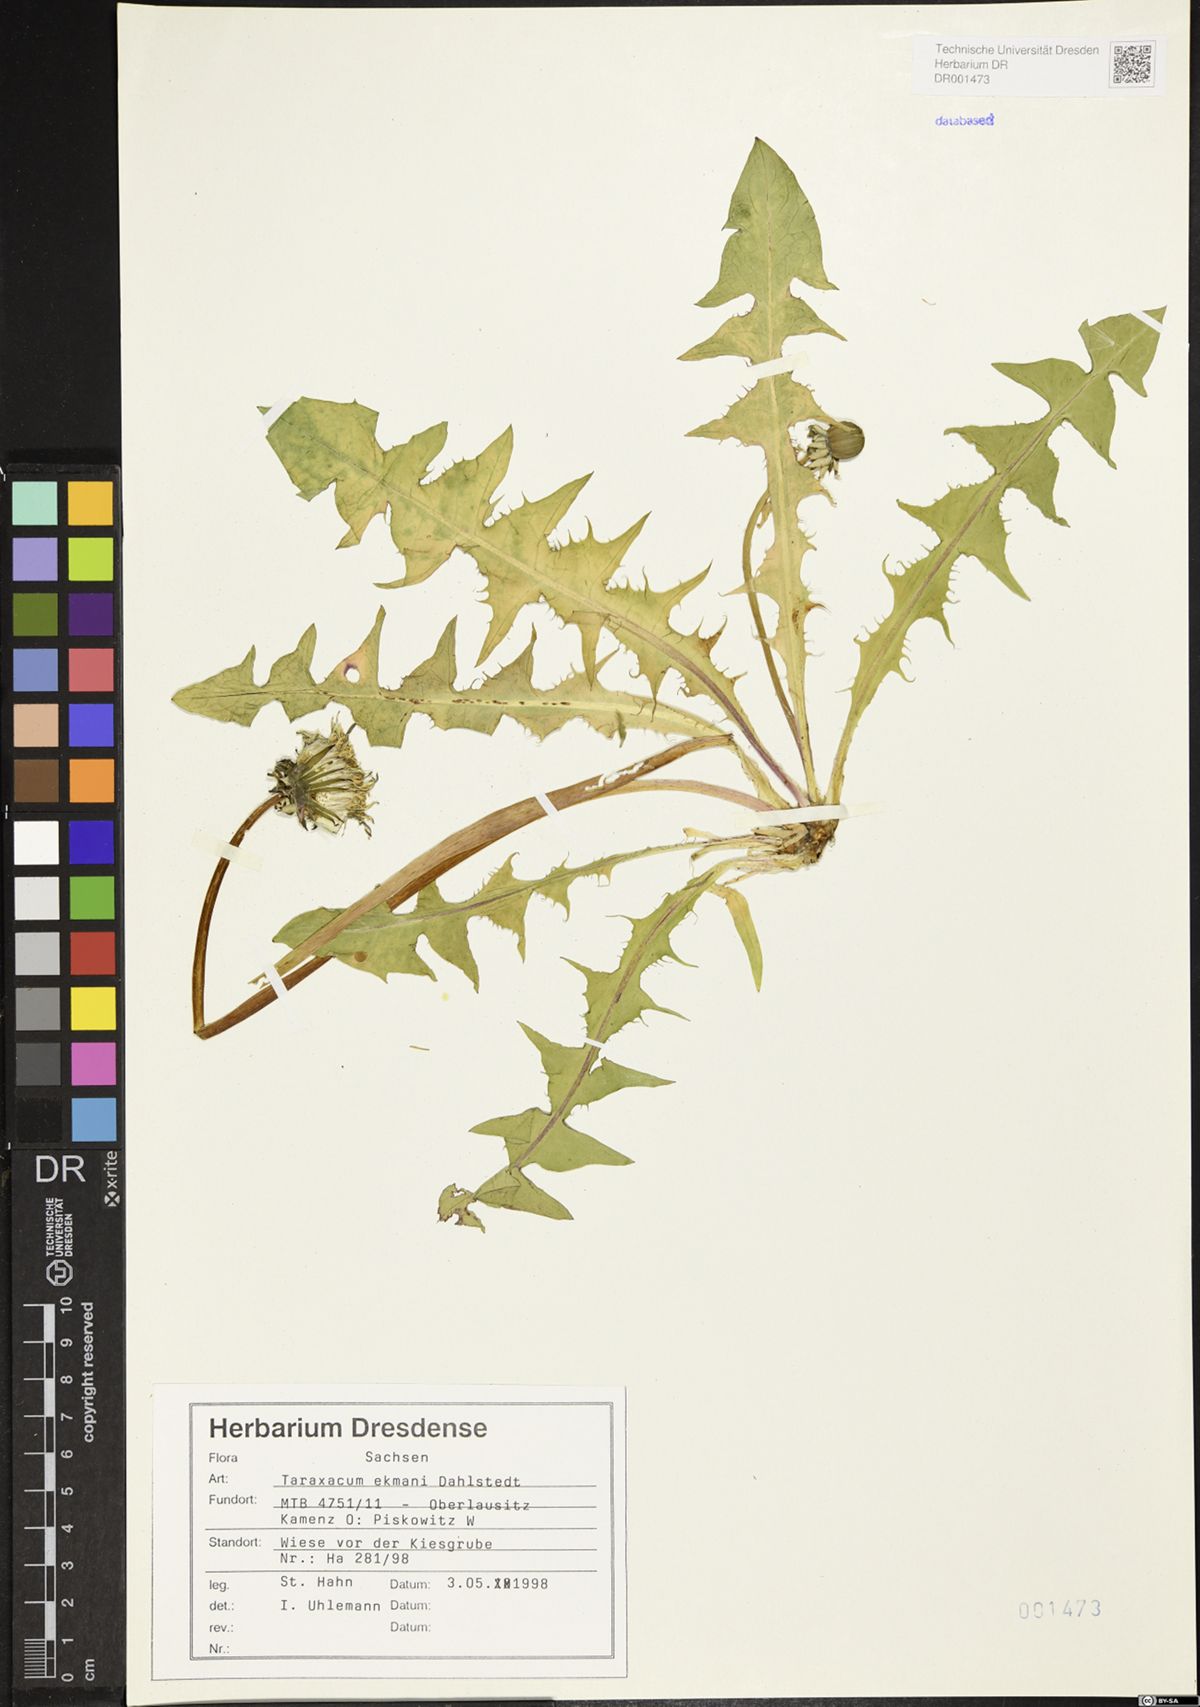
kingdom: Plantae
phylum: Tracheophyta
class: Magnoliopsida
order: Asterales
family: Asteraceae
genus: Taraxacum
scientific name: Taraxacum ekmanii
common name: Ekman's dandelion
